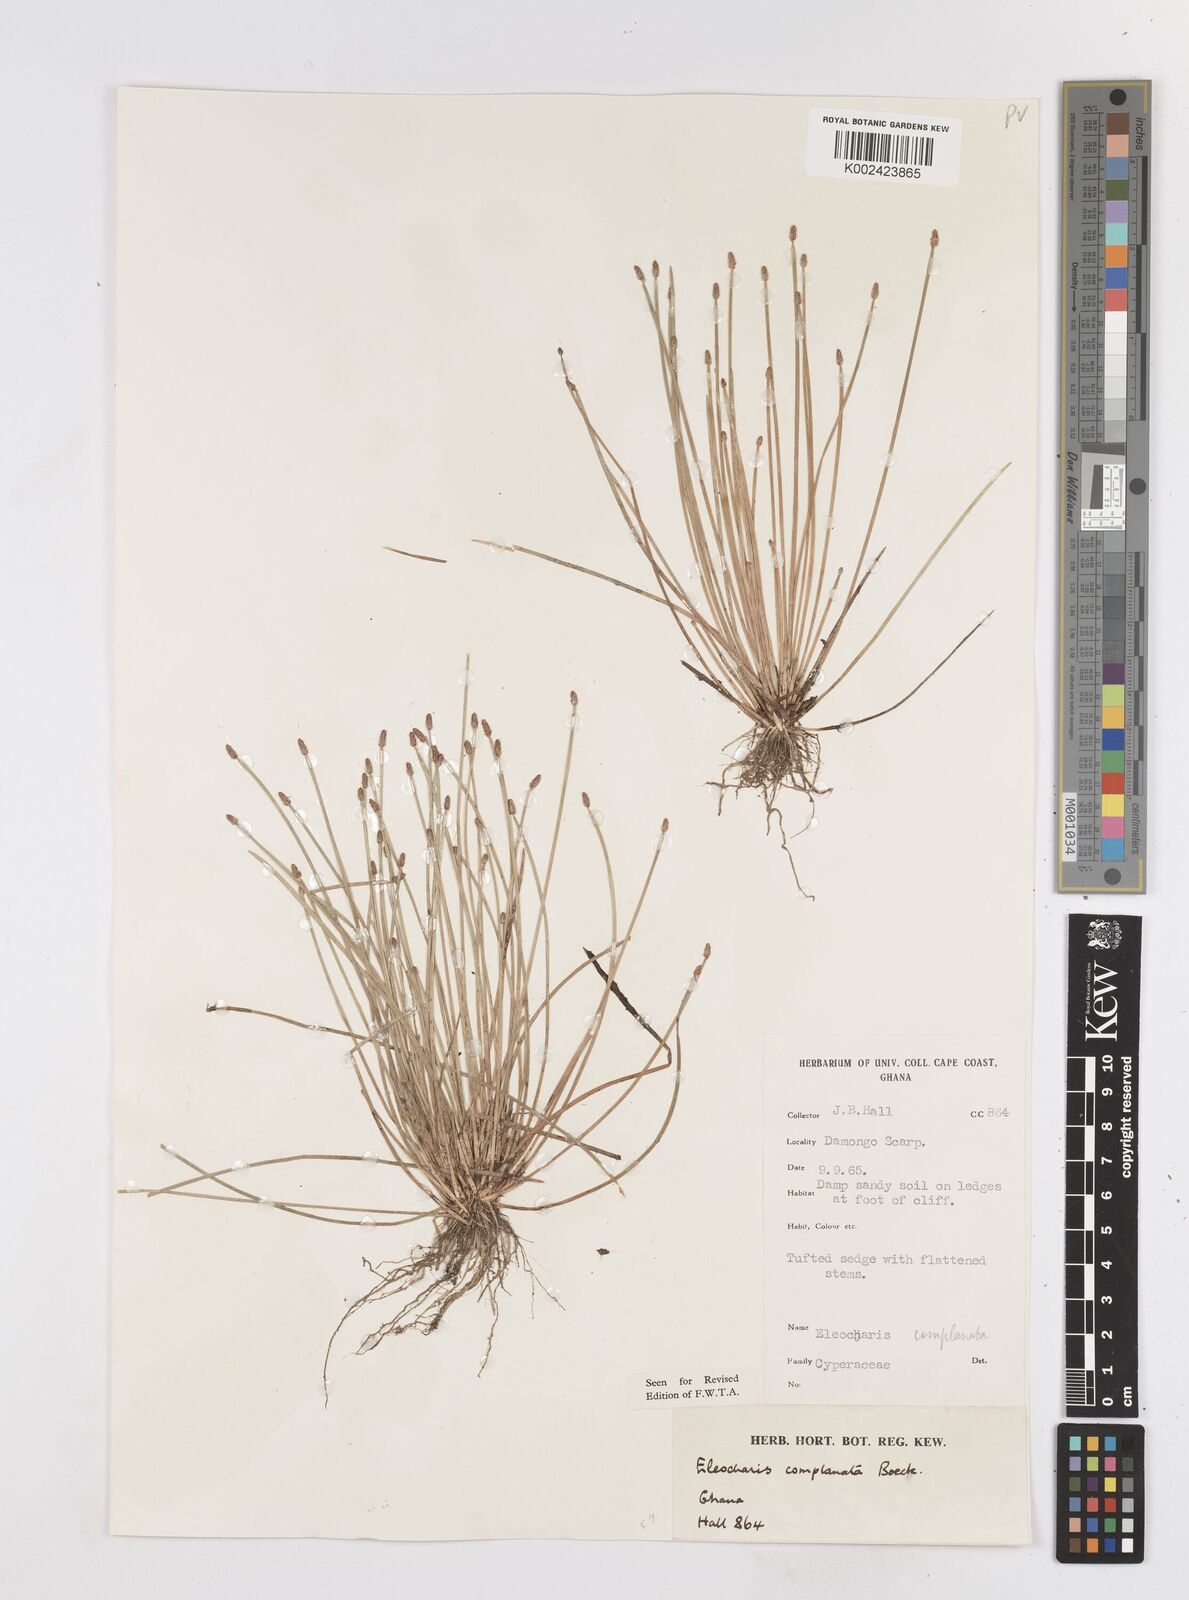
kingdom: Plantae
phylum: Tracheophyta
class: Liliopsida
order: Poales
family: Cyperaceae
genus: Eleocharis
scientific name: Eleocharis complanata
